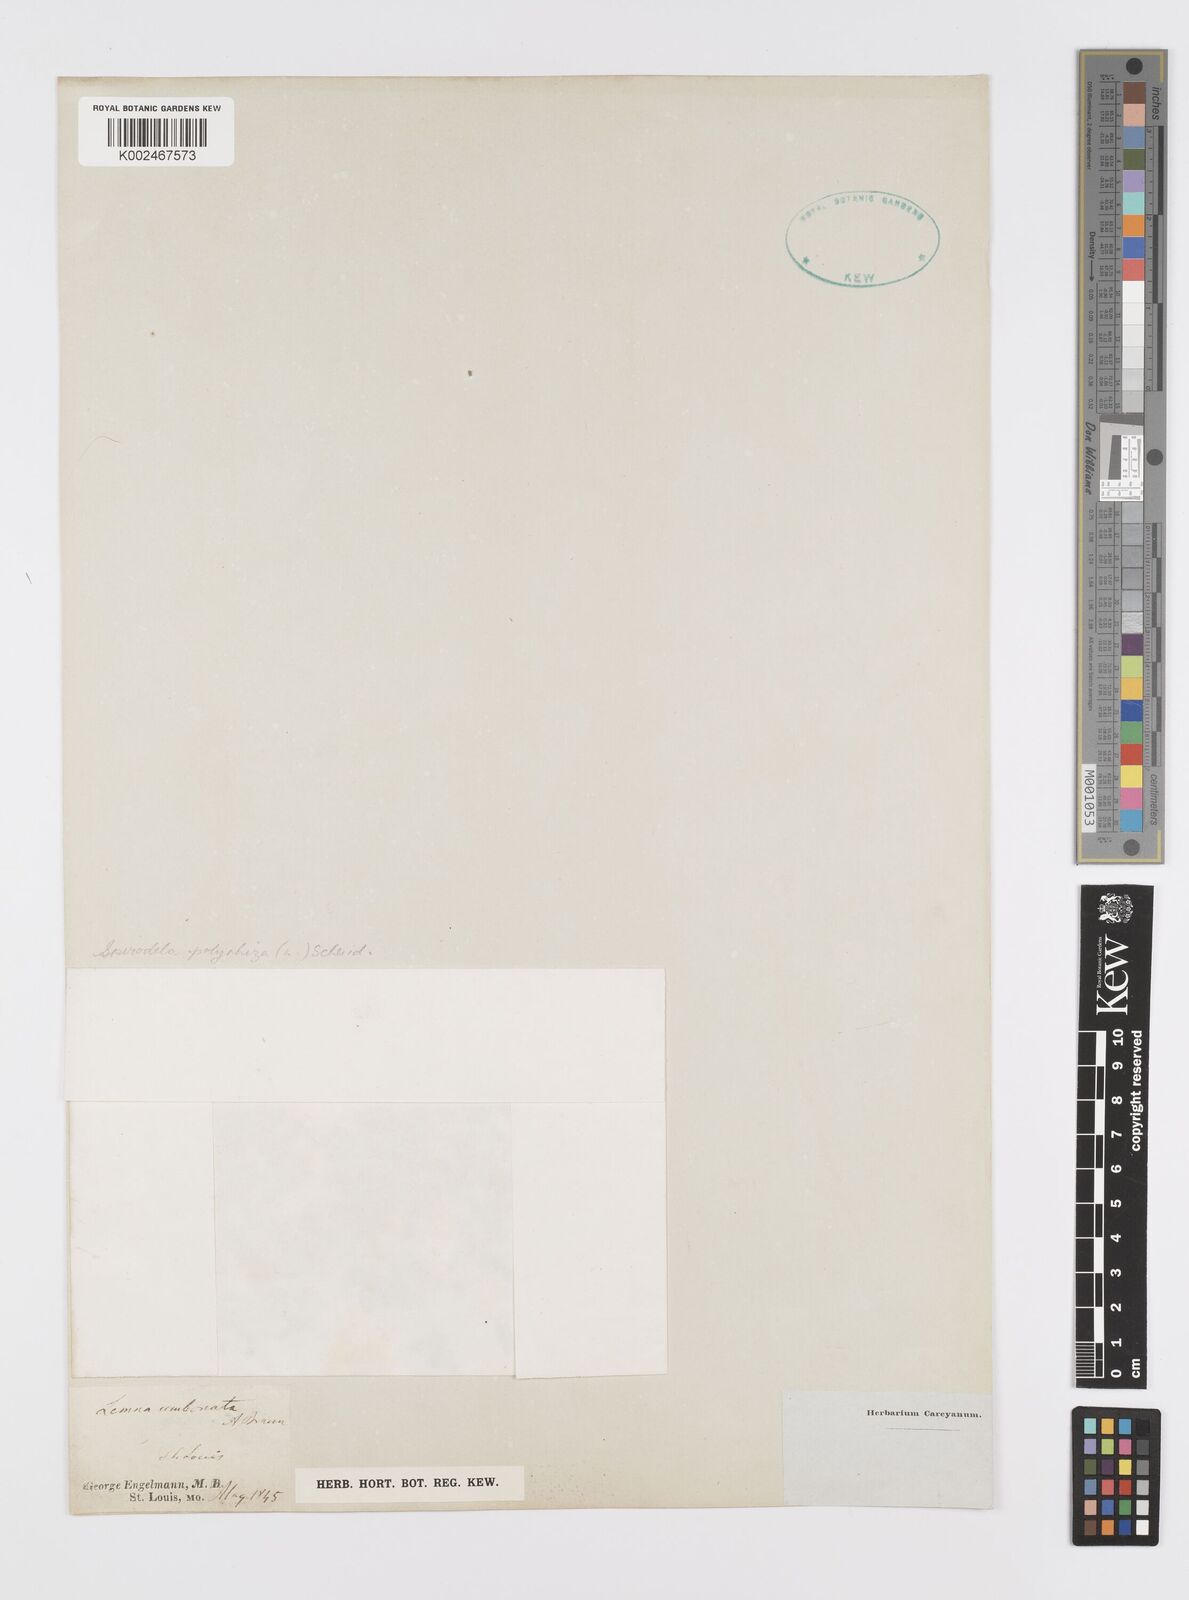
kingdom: Plantae
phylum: Tracheophyta
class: Liliopsida
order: Alismatales
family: Araceae
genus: Spirodela
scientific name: Spirodela polyrhiza
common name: Great duckweed
